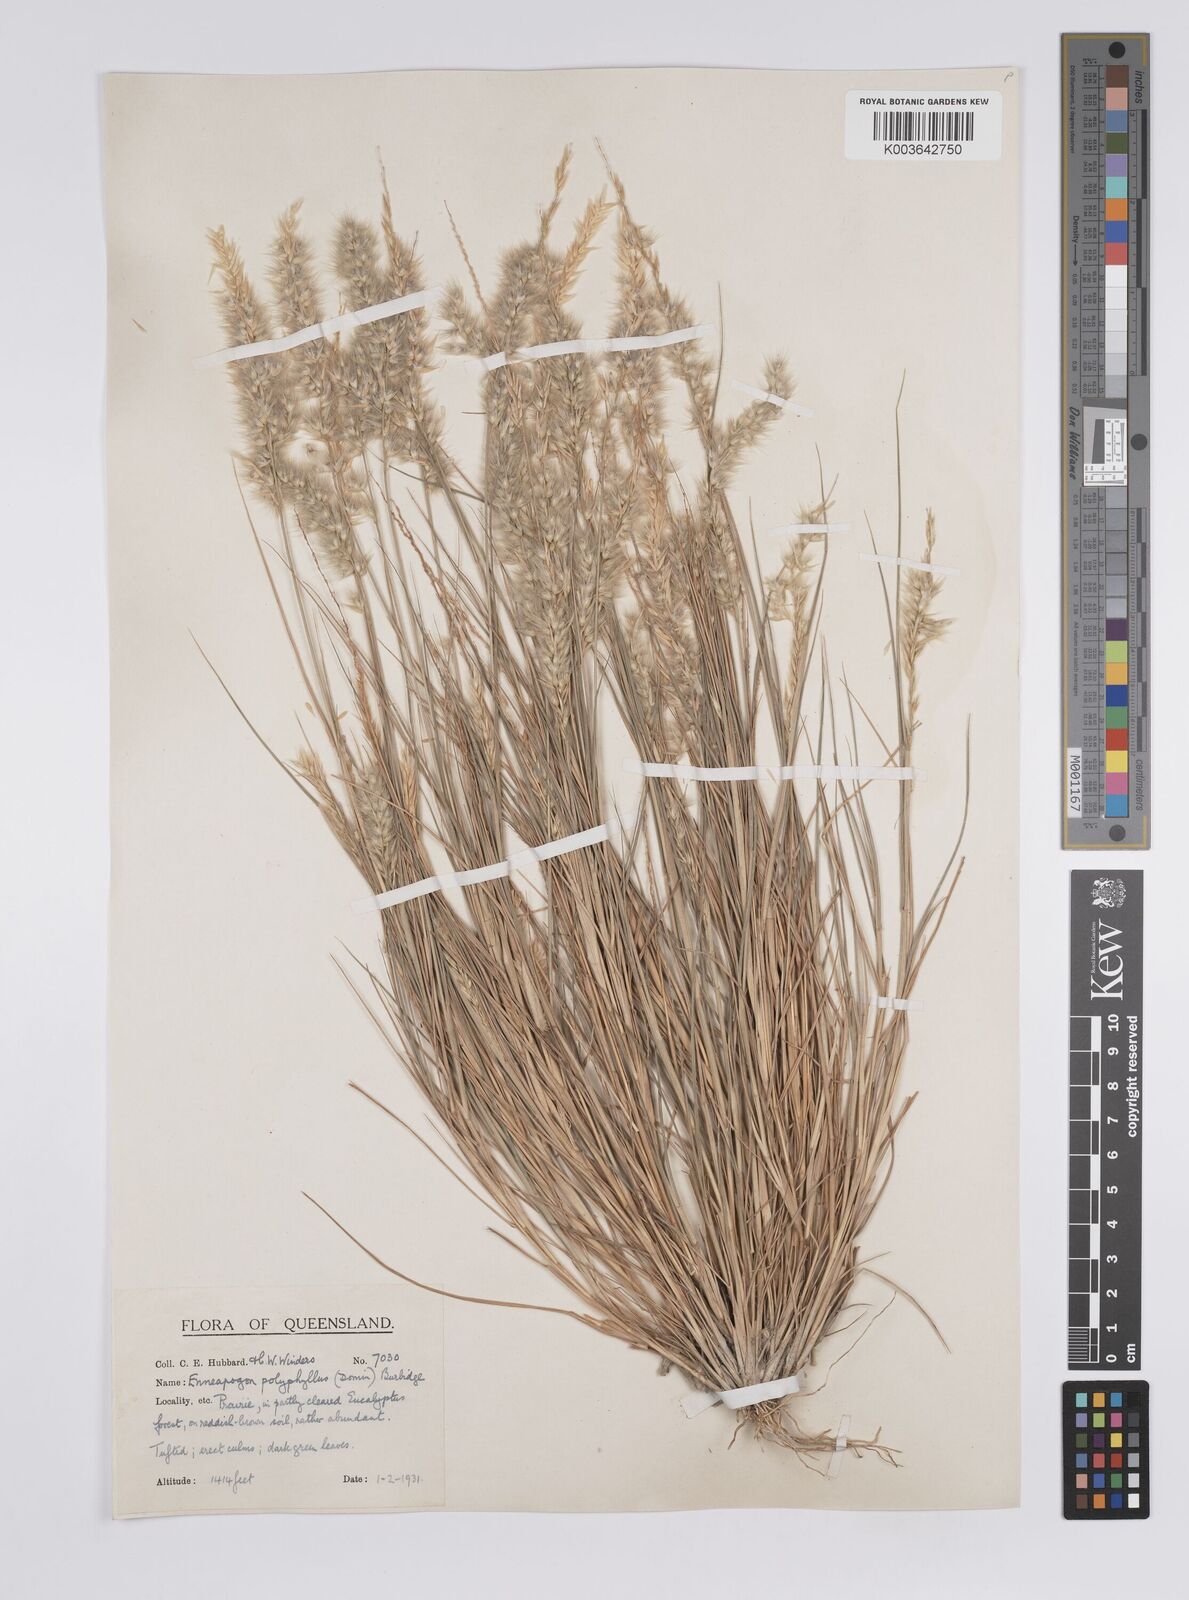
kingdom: Plantae
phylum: Tracheophyta
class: Liliopsida
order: Poales
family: Poaceae
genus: Enneapogon
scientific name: Enneapogon polyphyllus
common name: Leafy nineawn
